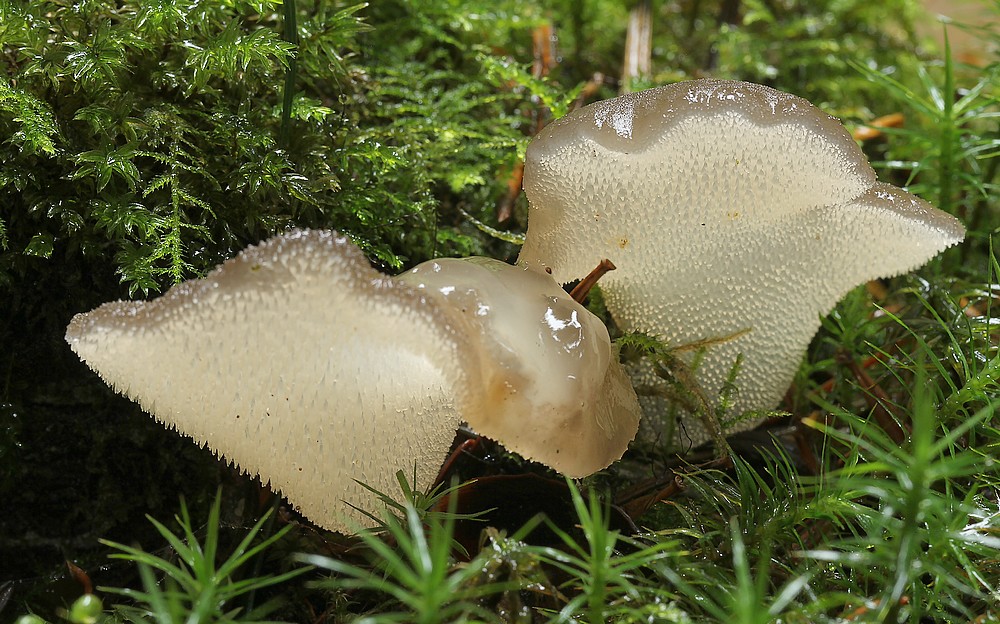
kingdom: Fungi
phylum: Basidiomycota
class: Agaricomycetes
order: Auriculariales
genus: Pseudohydnum
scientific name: Pseudohydnum gelatinosum
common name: bævretand
